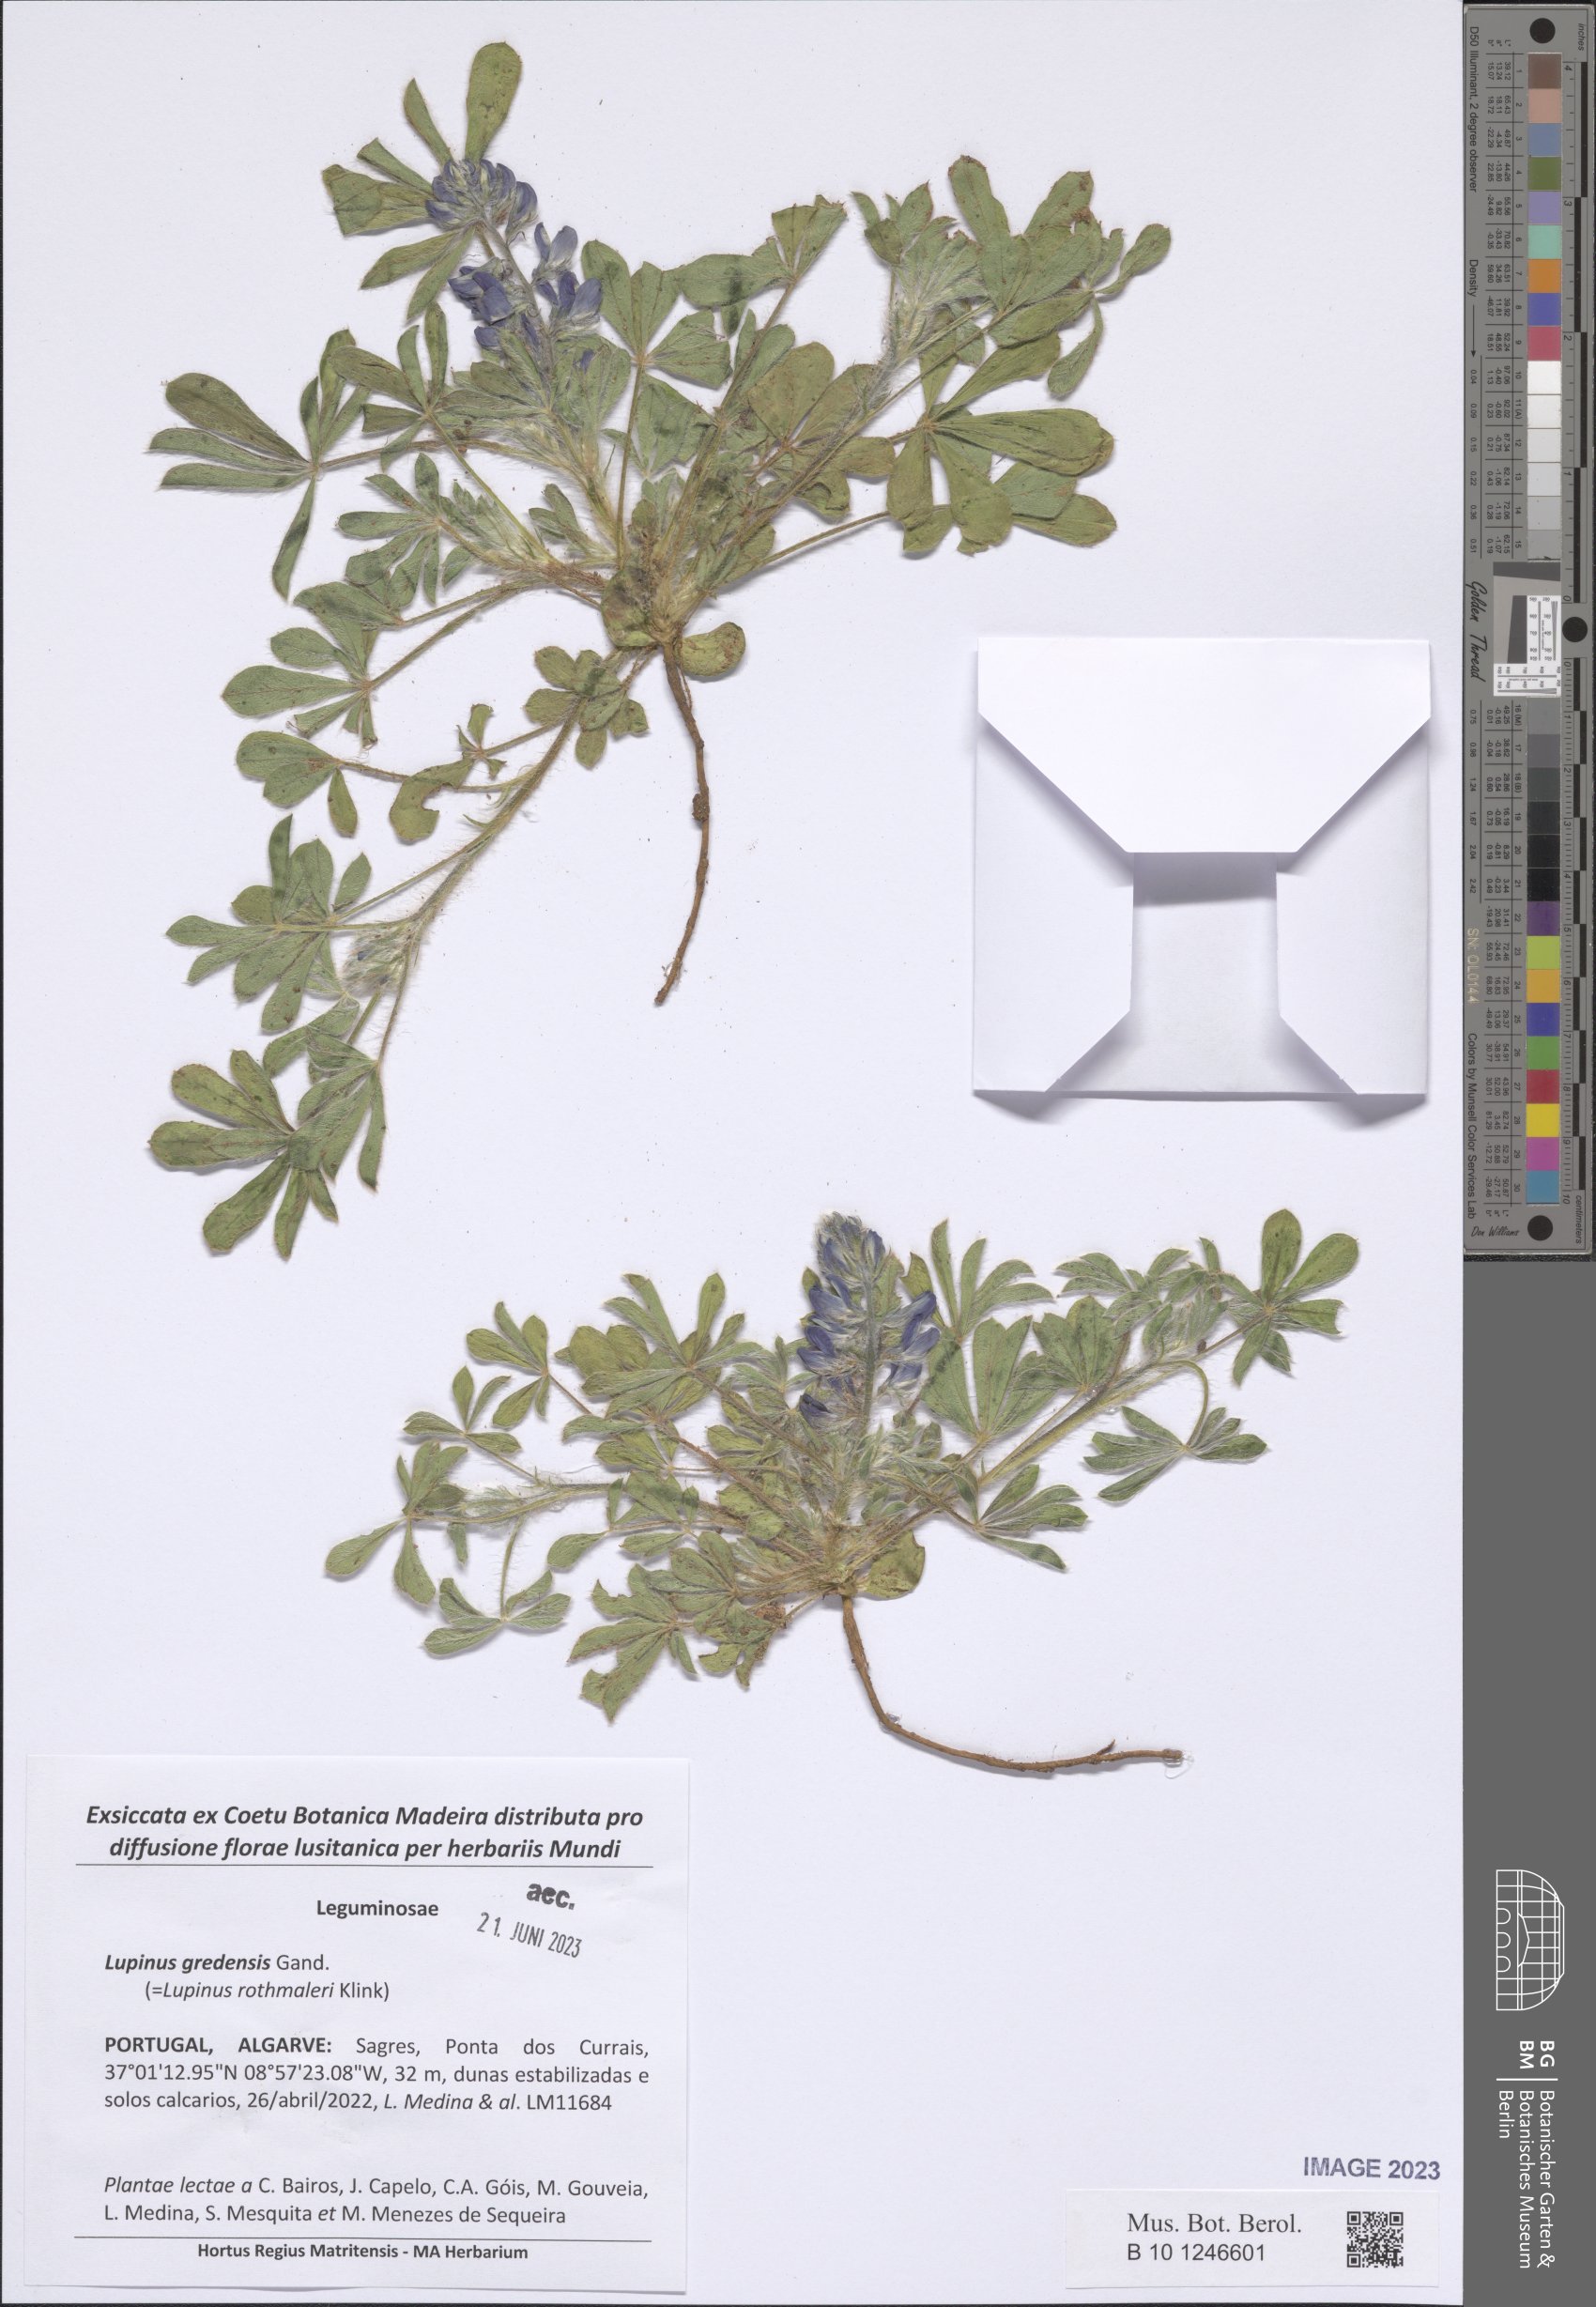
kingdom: Plantae
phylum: Tracheophyta
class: Magnoliopsida
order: Fabales
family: Fabaceae
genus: Lupinus
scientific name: Lupinus gredensis
